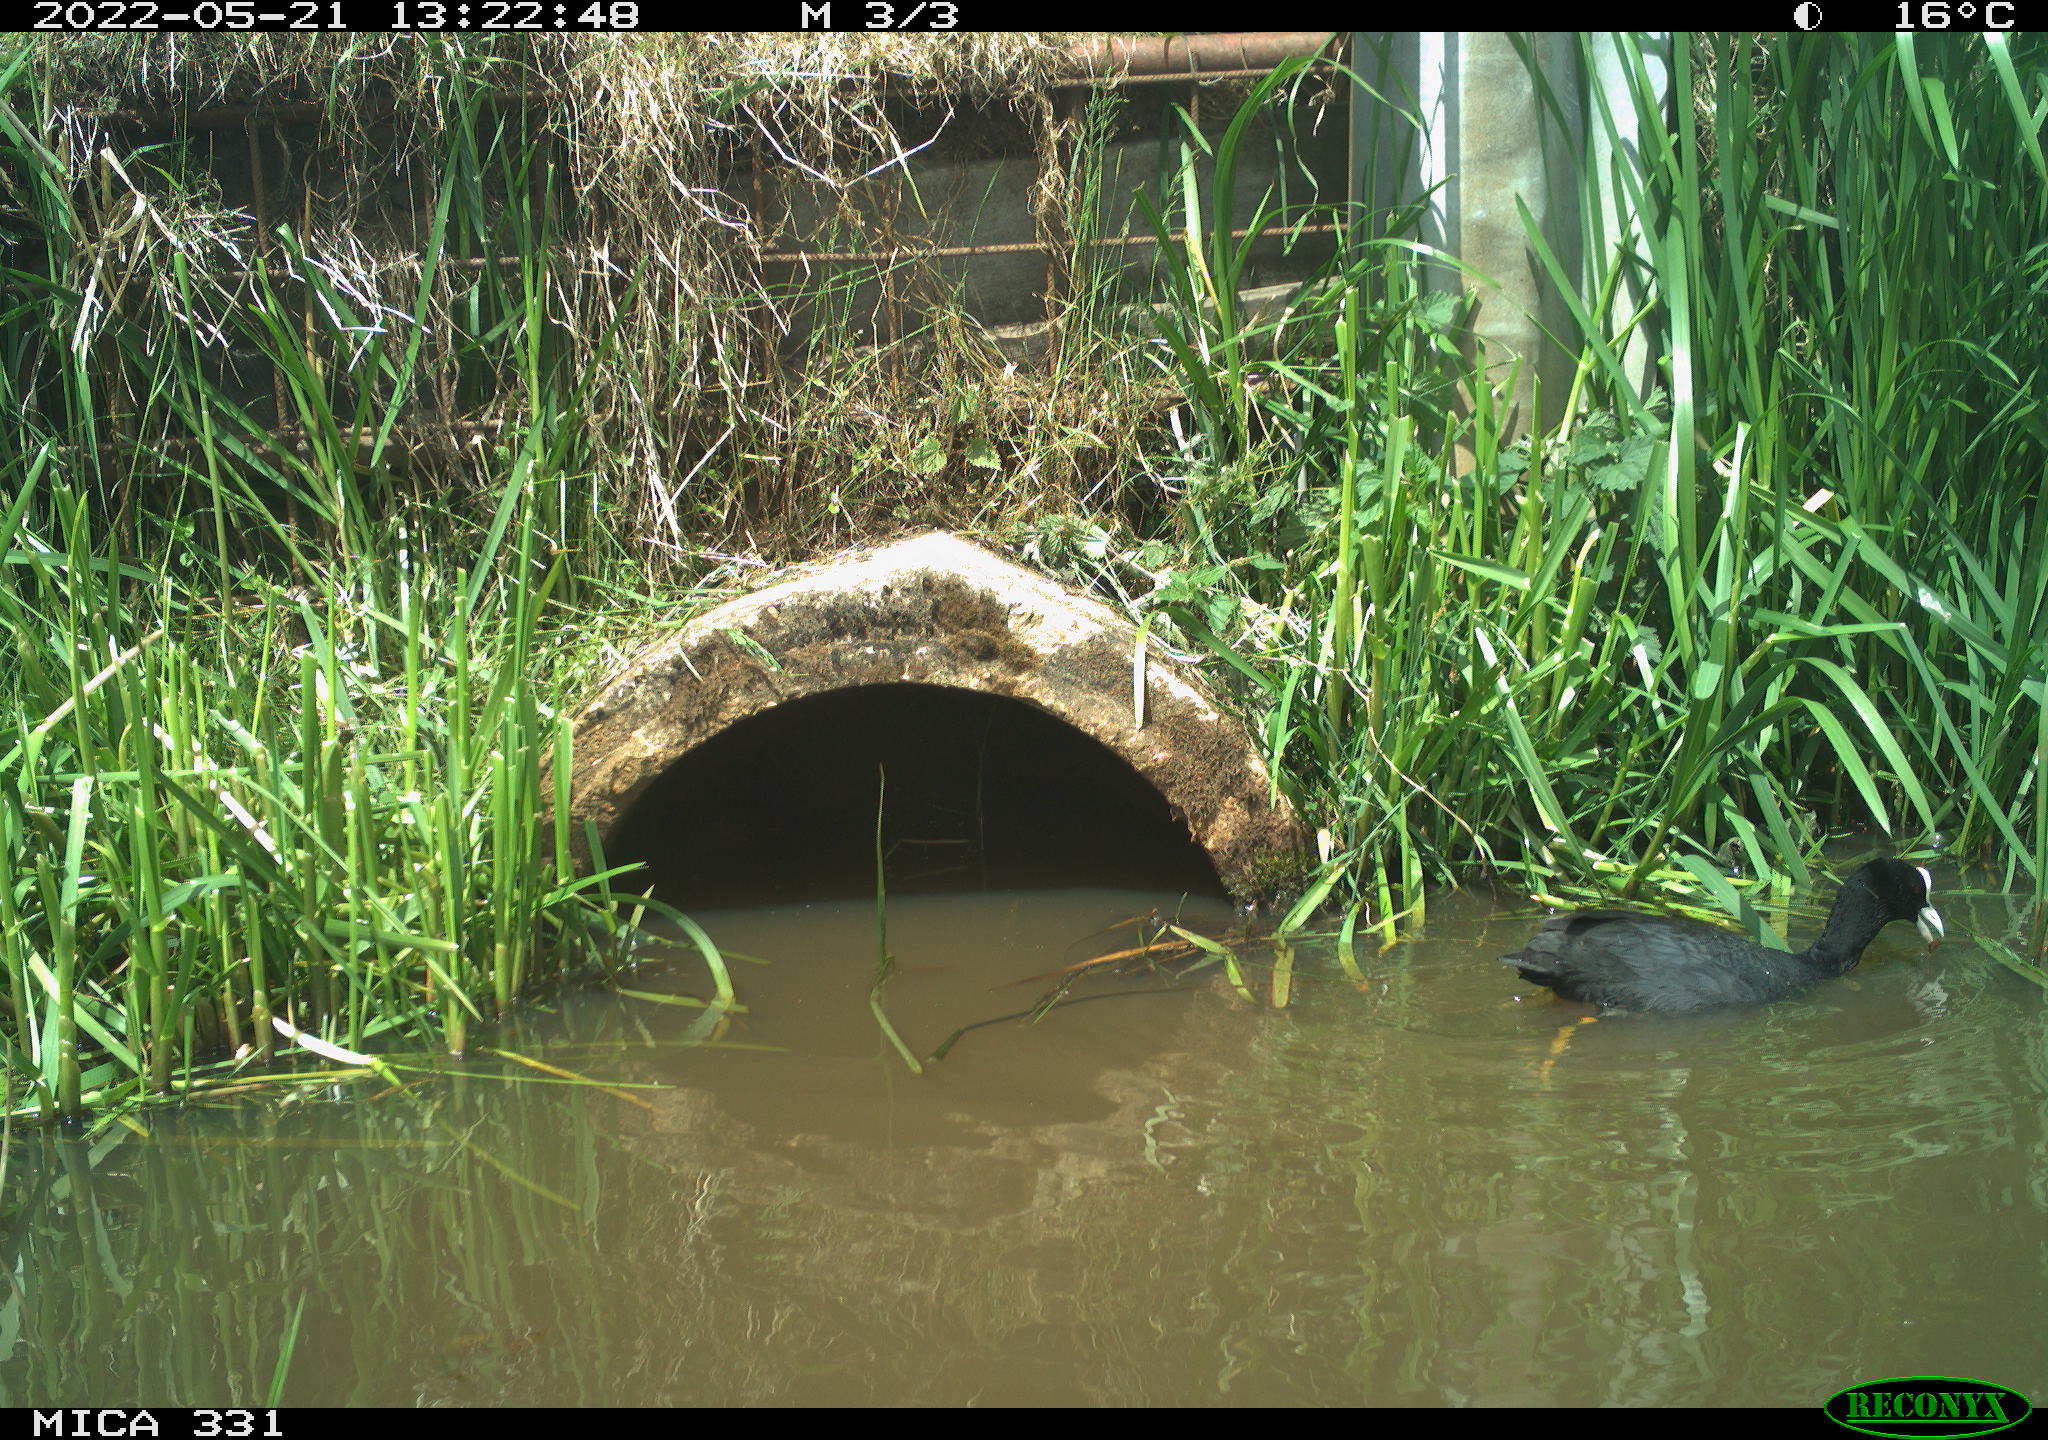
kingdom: Animalia
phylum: Chordata
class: Aves
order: Gruiformes
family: Rallidae
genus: Fulica
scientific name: Fulica atra
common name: Eurasian coot
